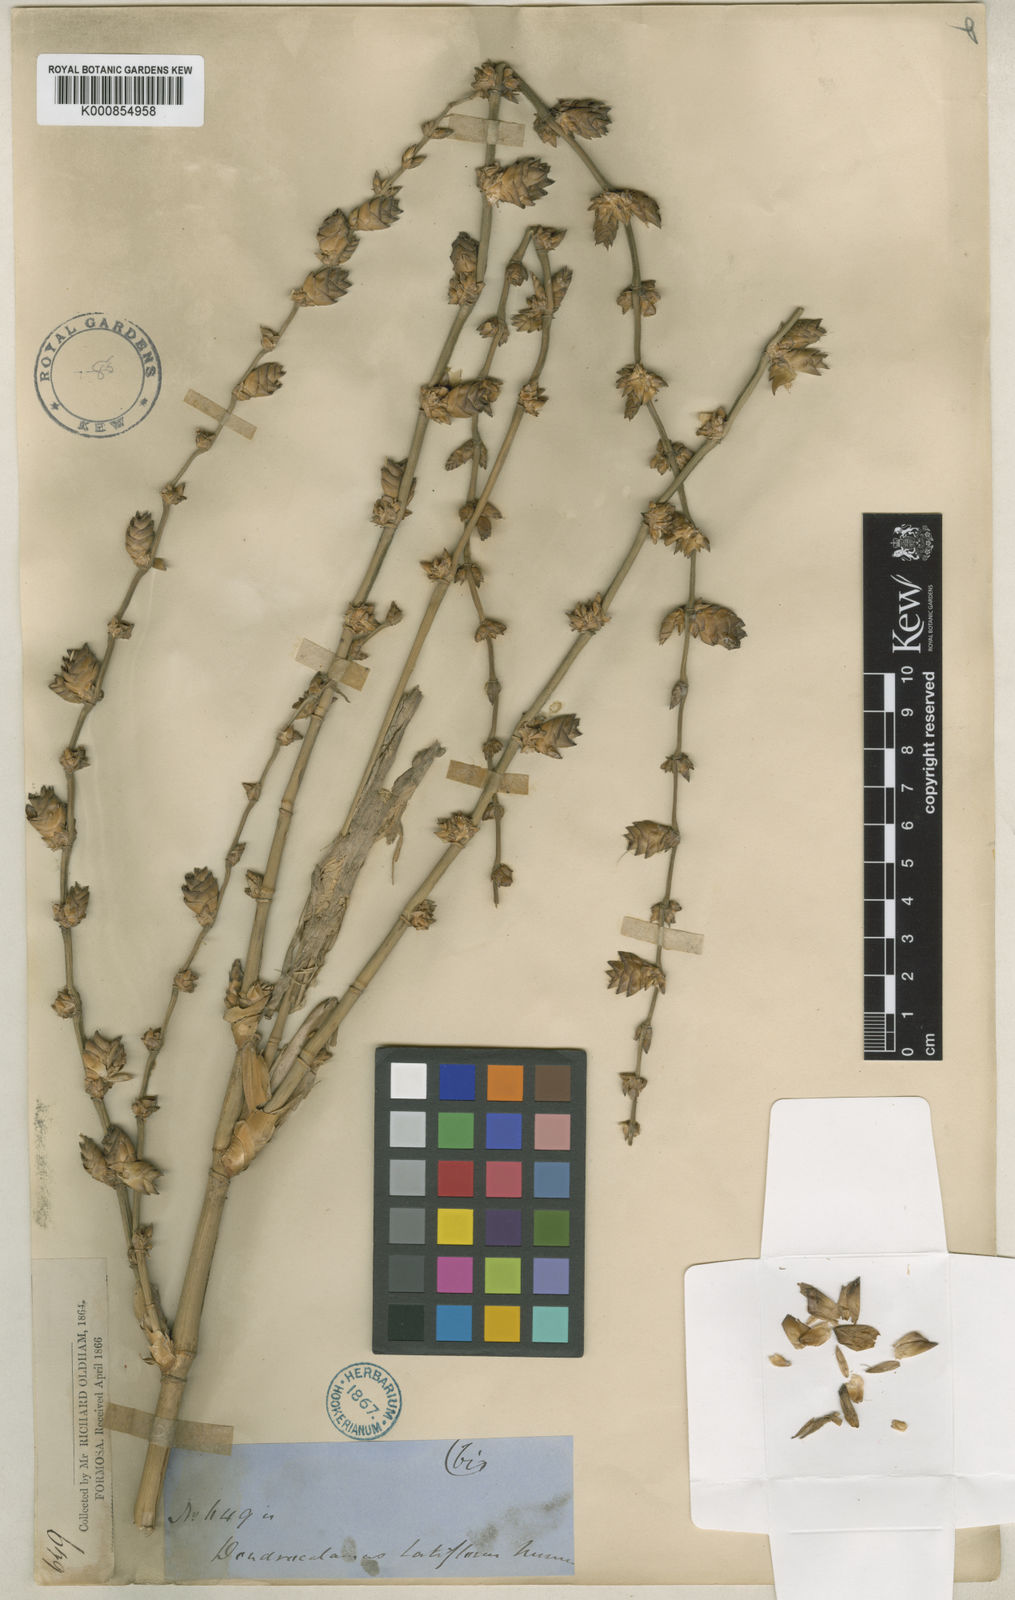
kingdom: Plantae
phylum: Tracheophyta
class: Liliopsida
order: Poales
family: Poaceae
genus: Dendrocalamus
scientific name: Dendrocalamus latiflorus
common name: Giant bamboo
